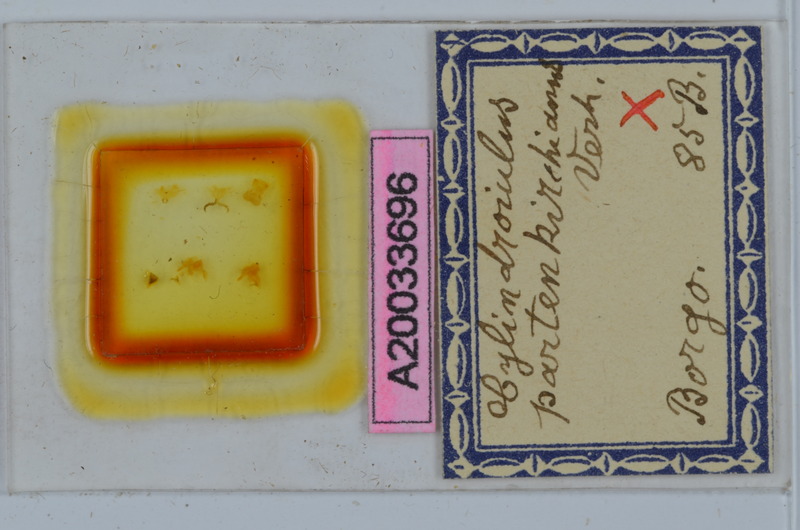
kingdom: Animalia
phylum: Arthropoda
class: Diplopoda
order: Julida
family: Julidae
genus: Cylindroiulus
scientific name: Cylindroiulus fulviceps
